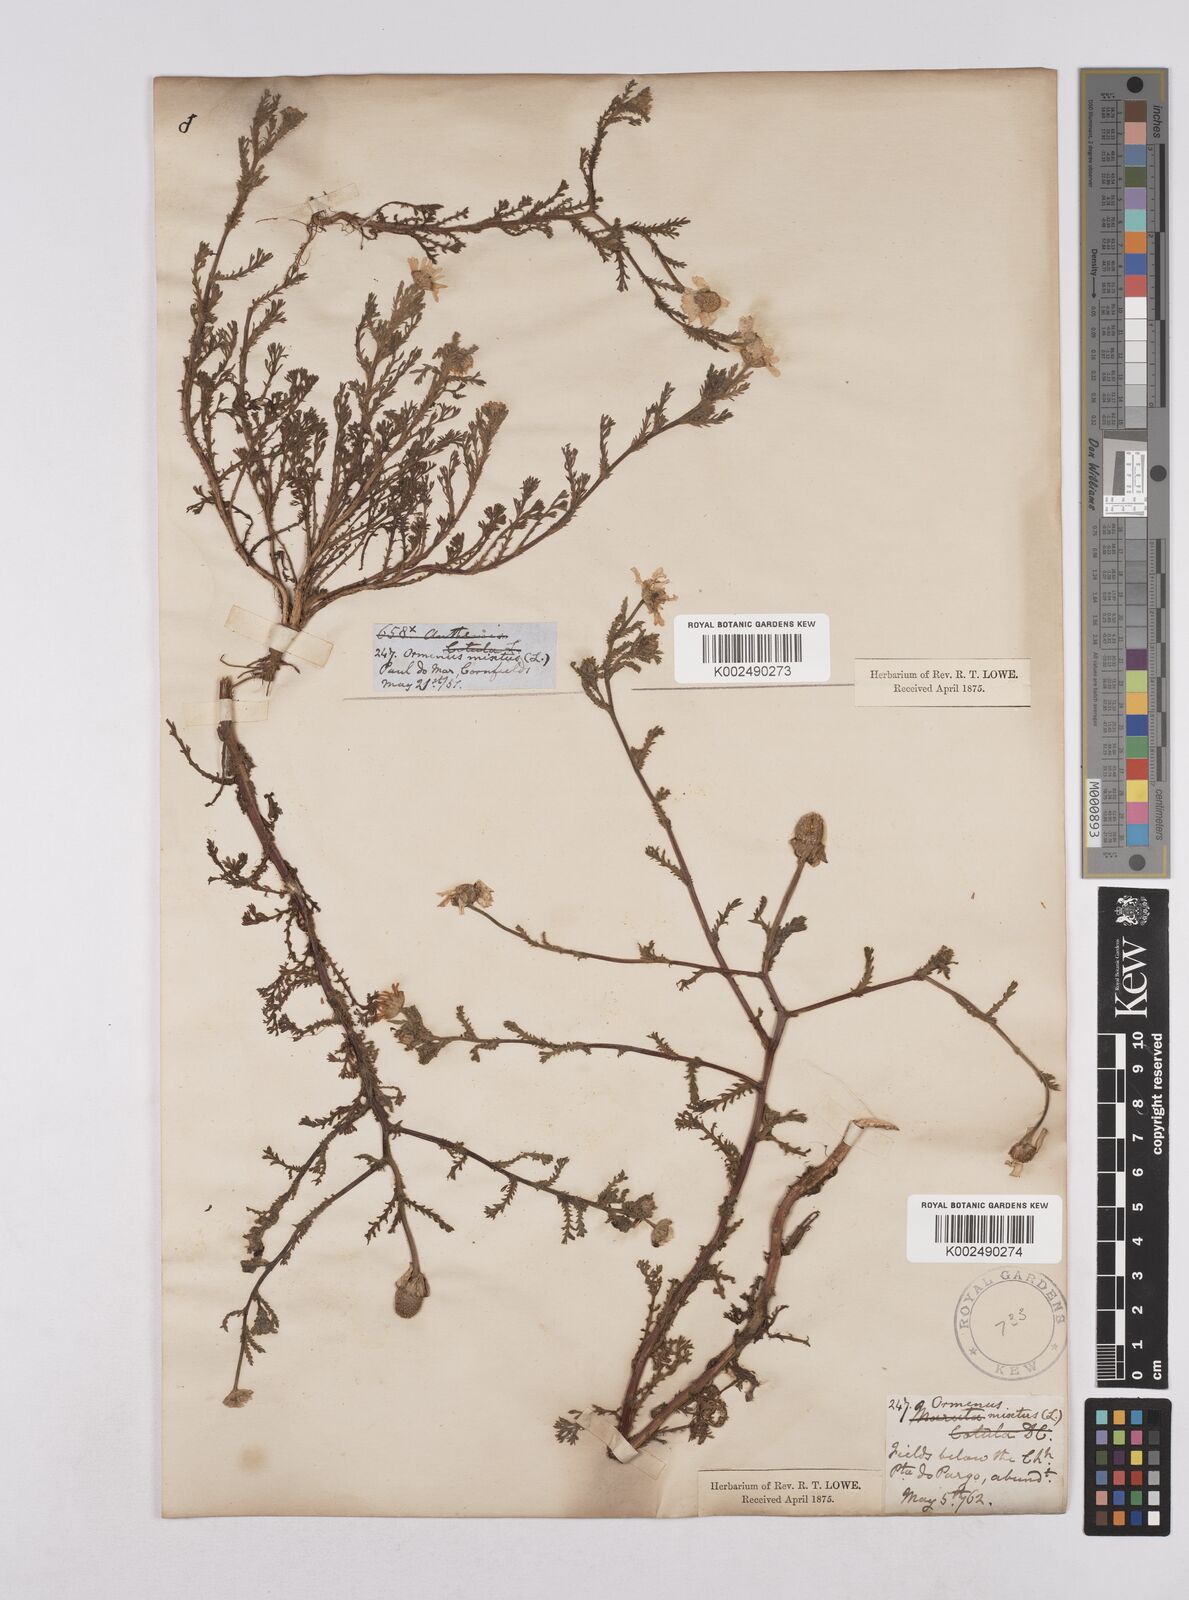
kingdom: Plantae
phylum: Tracheophyta
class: Magnoliopsida
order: Asterales
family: Asteraceae
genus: Cladanthus
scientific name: Cladanthus mixtus
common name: Weedy dogfennel
